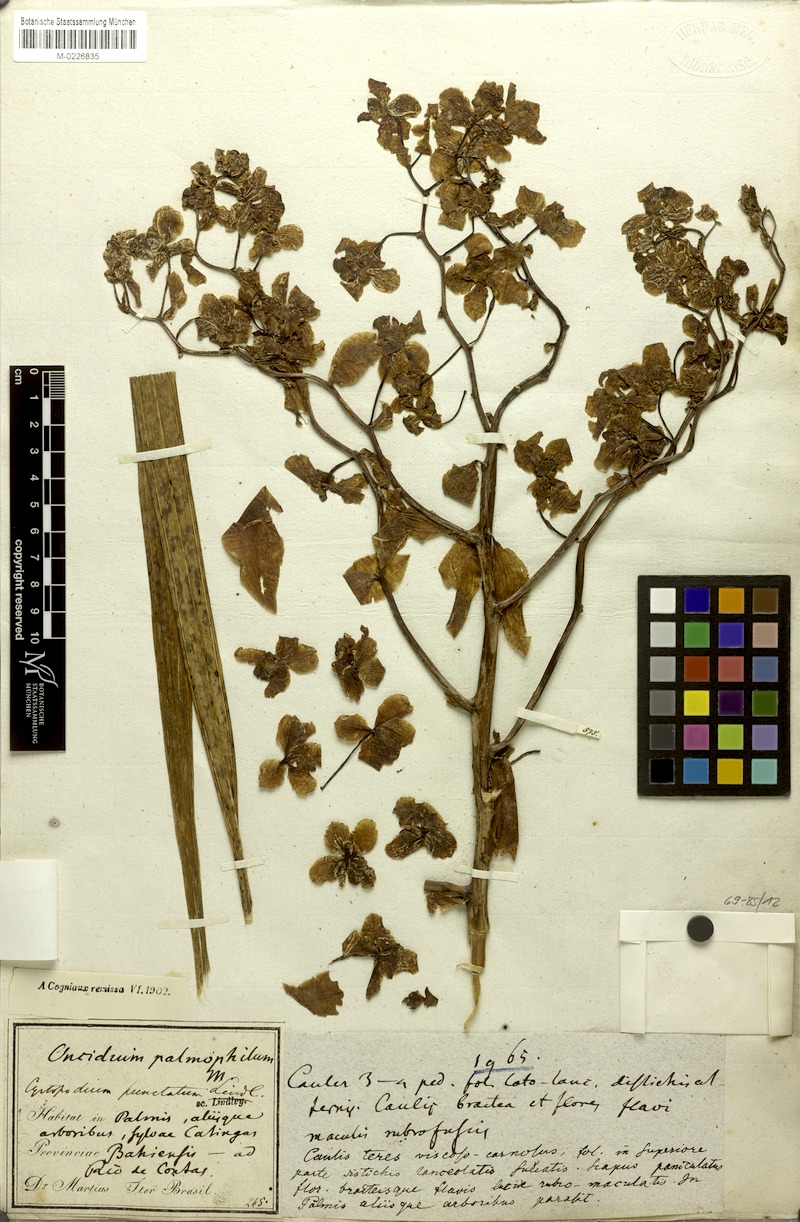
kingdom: Plantae
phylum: Tracheophyta
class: Liliopsida
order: Asparagales
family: Orchidaceae
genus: Cyrtopodium
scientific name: Cyrtopodium gigas
